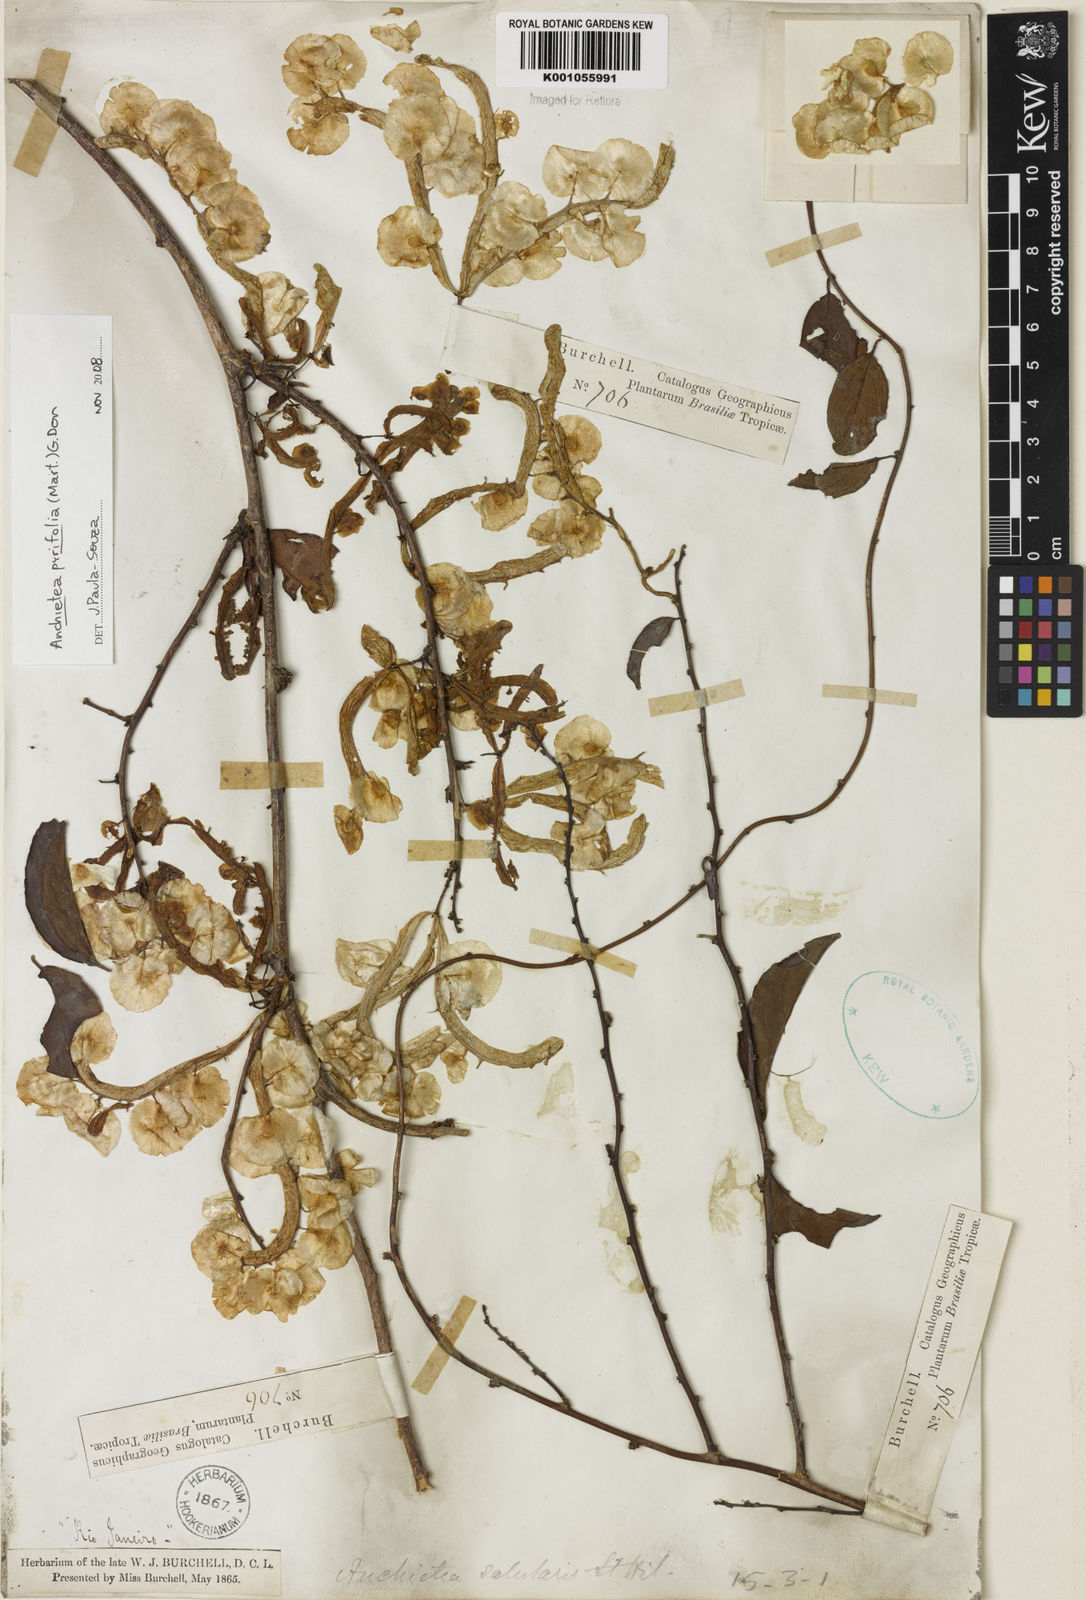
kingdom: Plantae
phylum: Tracheophyta
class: Magnoliopsida
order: Malpighiales
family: Violaceae
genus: Anchietea
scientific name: Anchietea pyrifolia
